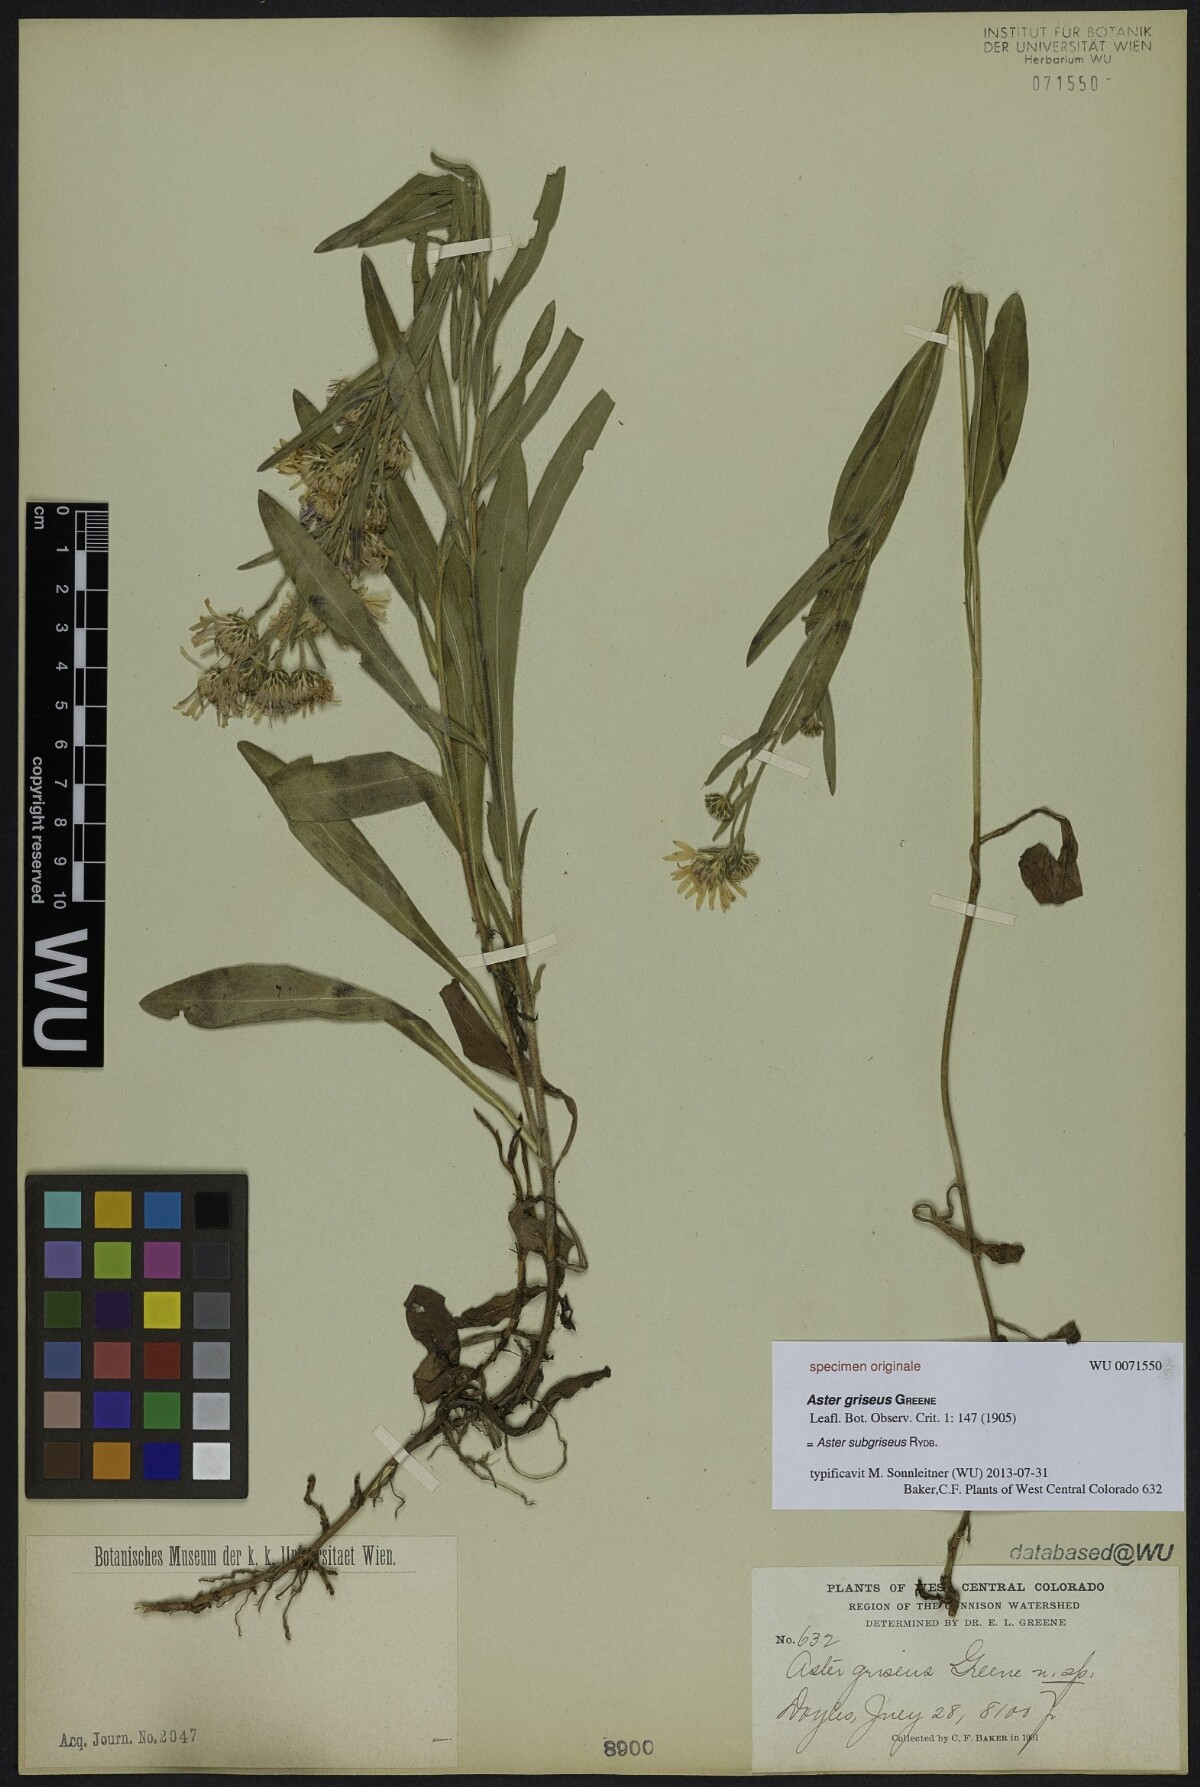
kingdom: Plantae
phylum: Tracheophyta
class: Magnoliopsida
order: Asterales
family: Asteraceae
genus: Symphyotrichum
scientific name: Symphyotrichum ascendens
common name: Intermountain aster
